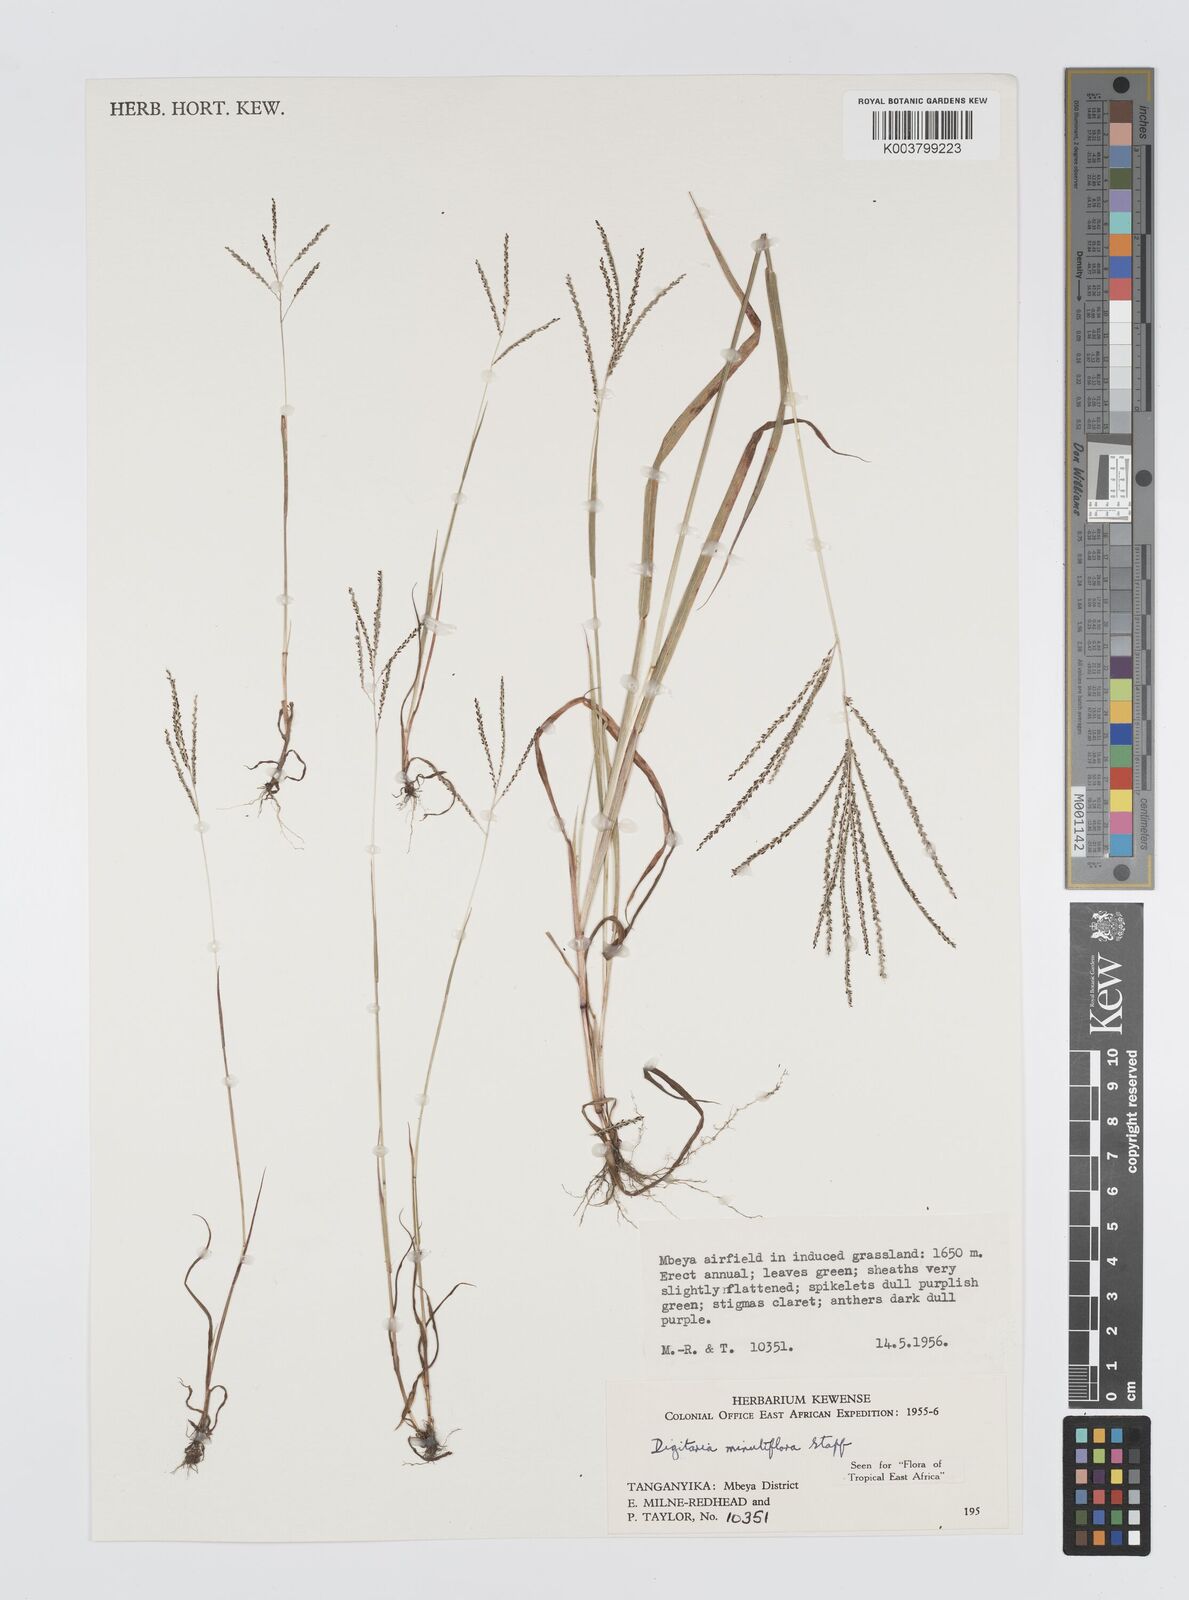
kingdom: Plantae
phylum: Tracheophyta
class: Liliopsida
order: Poales
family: Poaceae
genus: Digitaria
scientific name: Digitaria pseudodiagonalis
